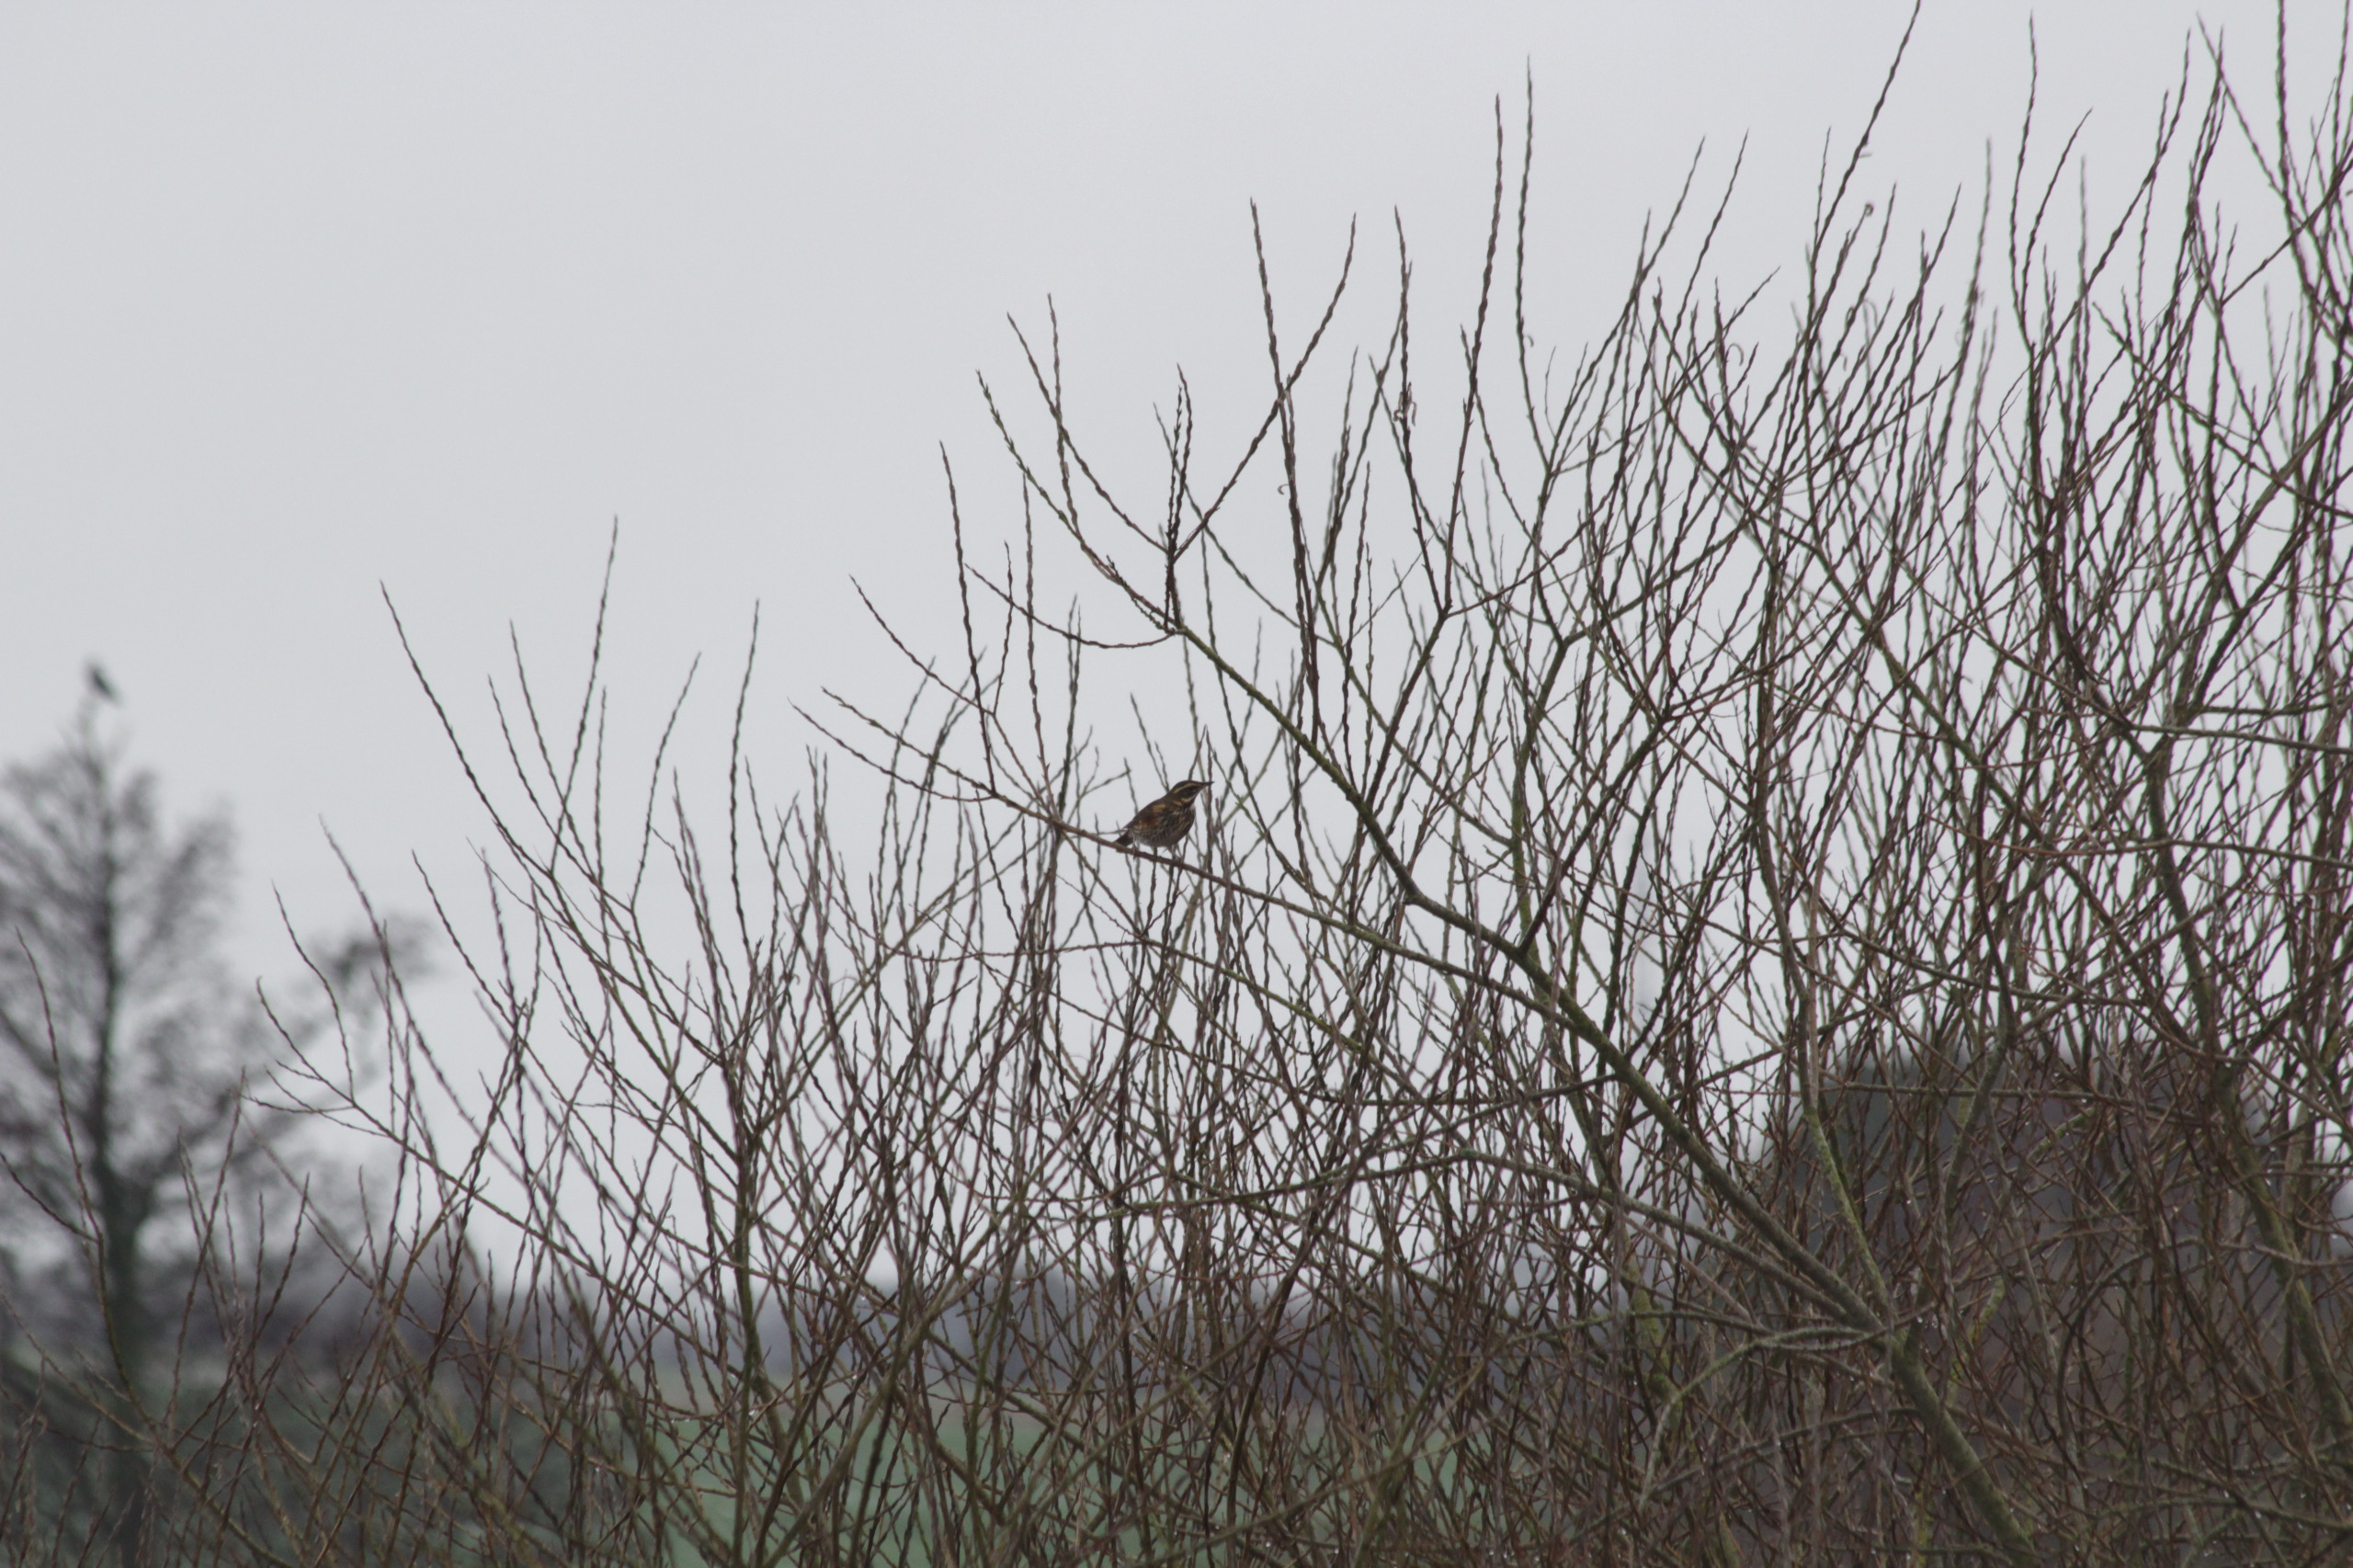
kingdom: Animalia
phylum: Chordata
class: Aves
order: Passeriformes
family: Turdidae
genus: Turdus
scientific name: Turdus iliacus
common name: Vindrossel
